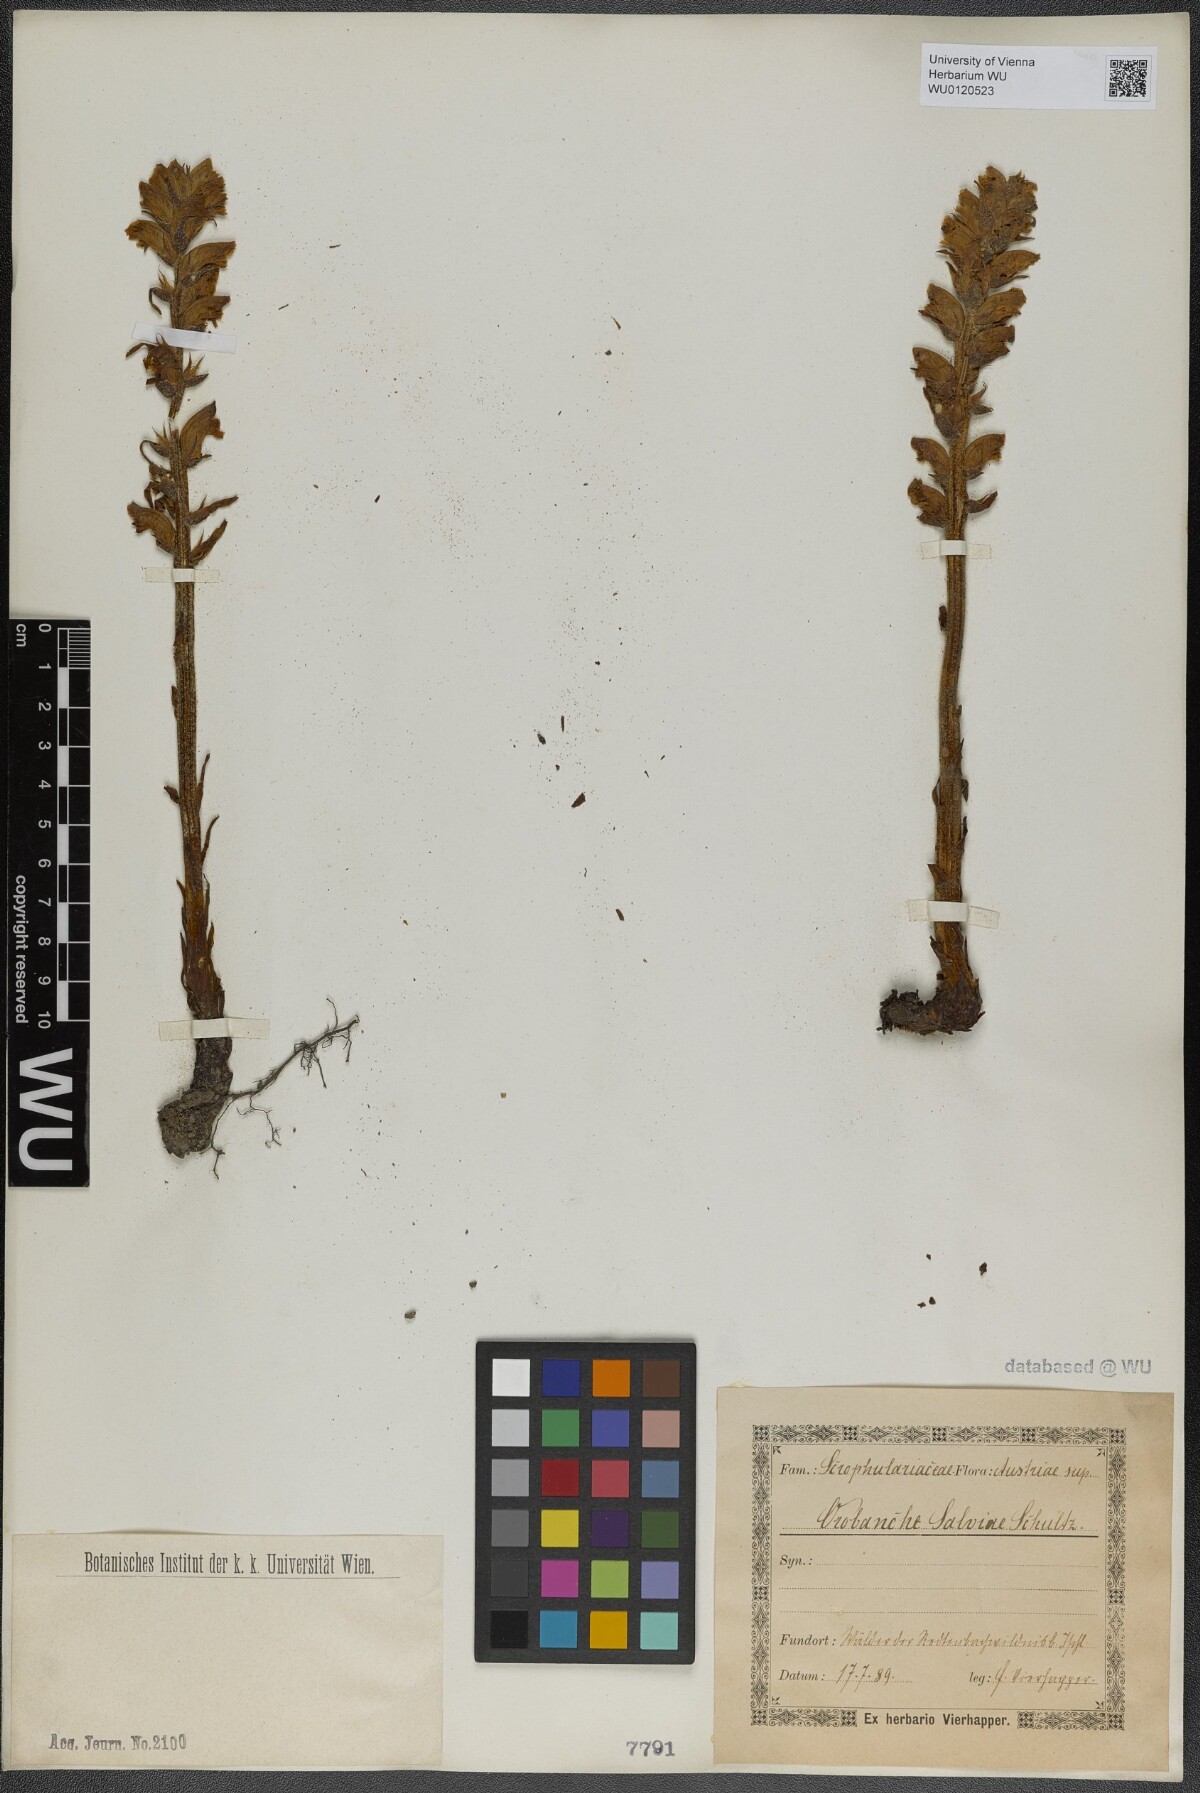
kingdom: Plantae
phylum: Tracheophyta
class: Magnoliopsida
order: Lamiales
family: Orobanchaceae
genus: Orobanche
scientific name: Orobanche salviae
